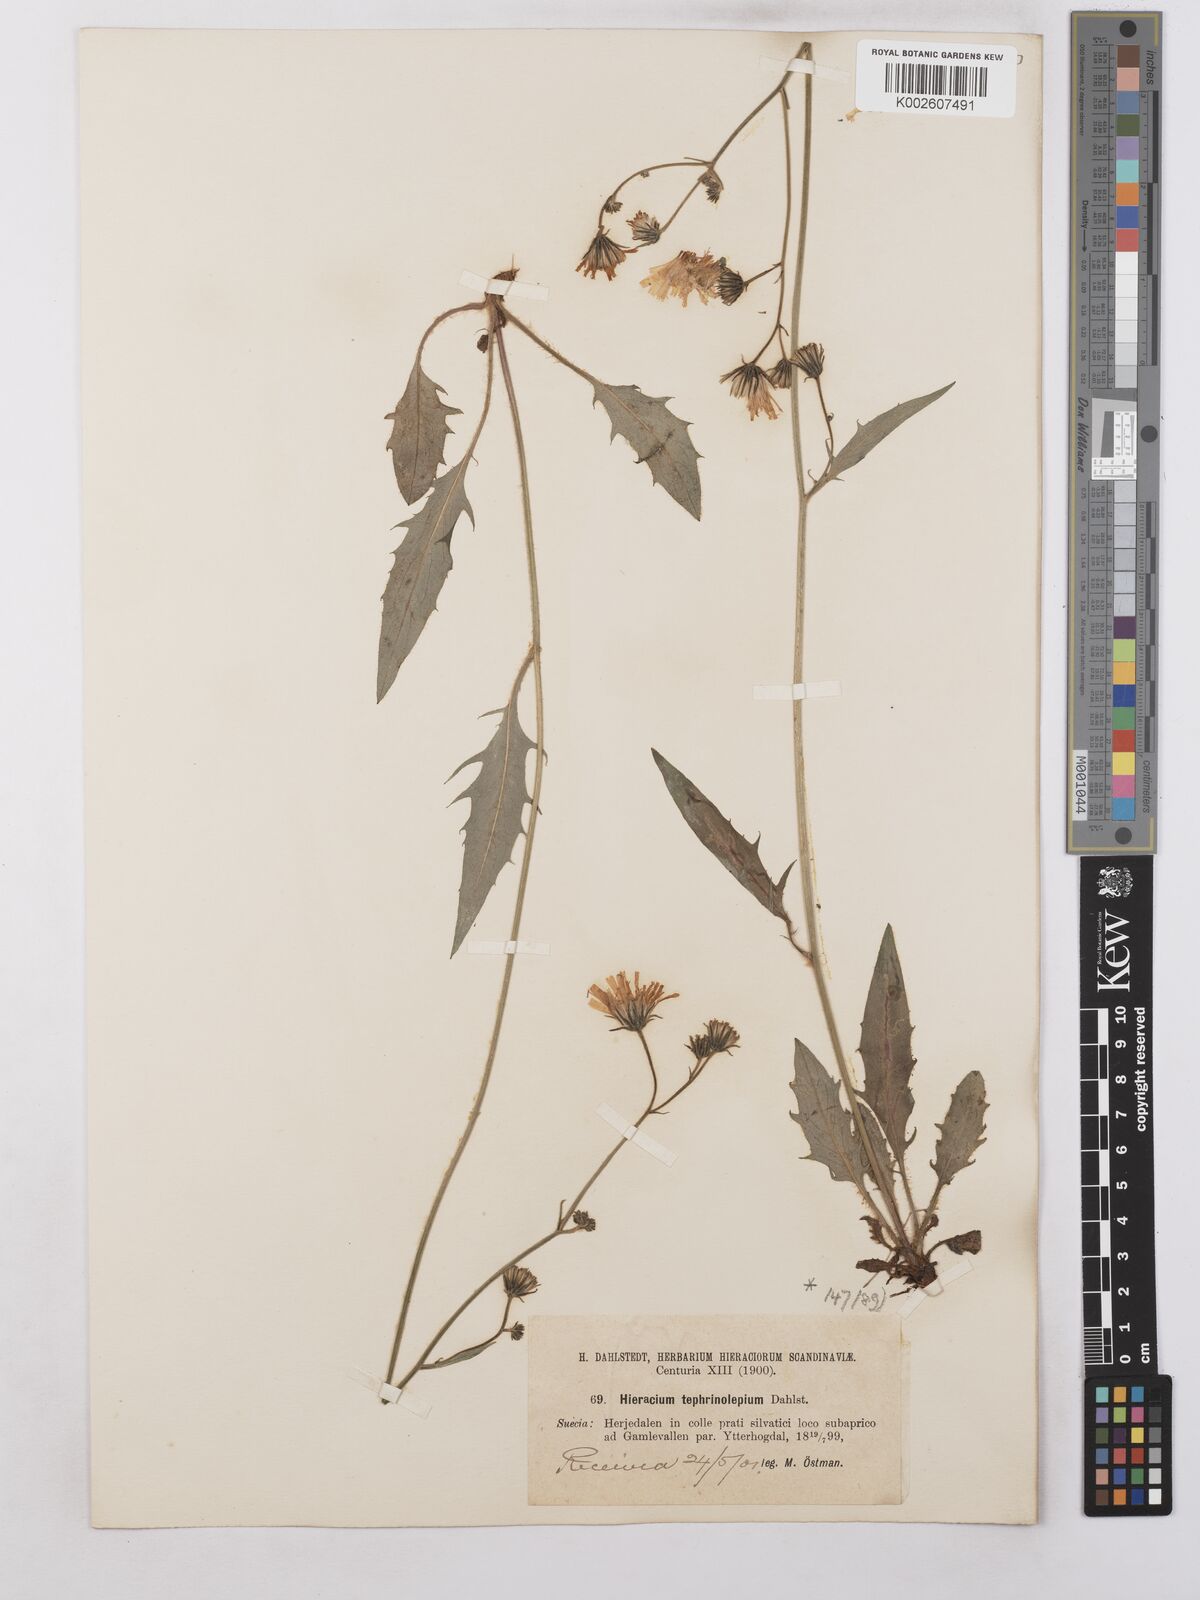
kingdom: Plantae
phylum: Tracheophyta
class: Magnoliopsida
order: Asterales
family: Asteraceae
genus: Hieracium
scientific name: Hieracium
